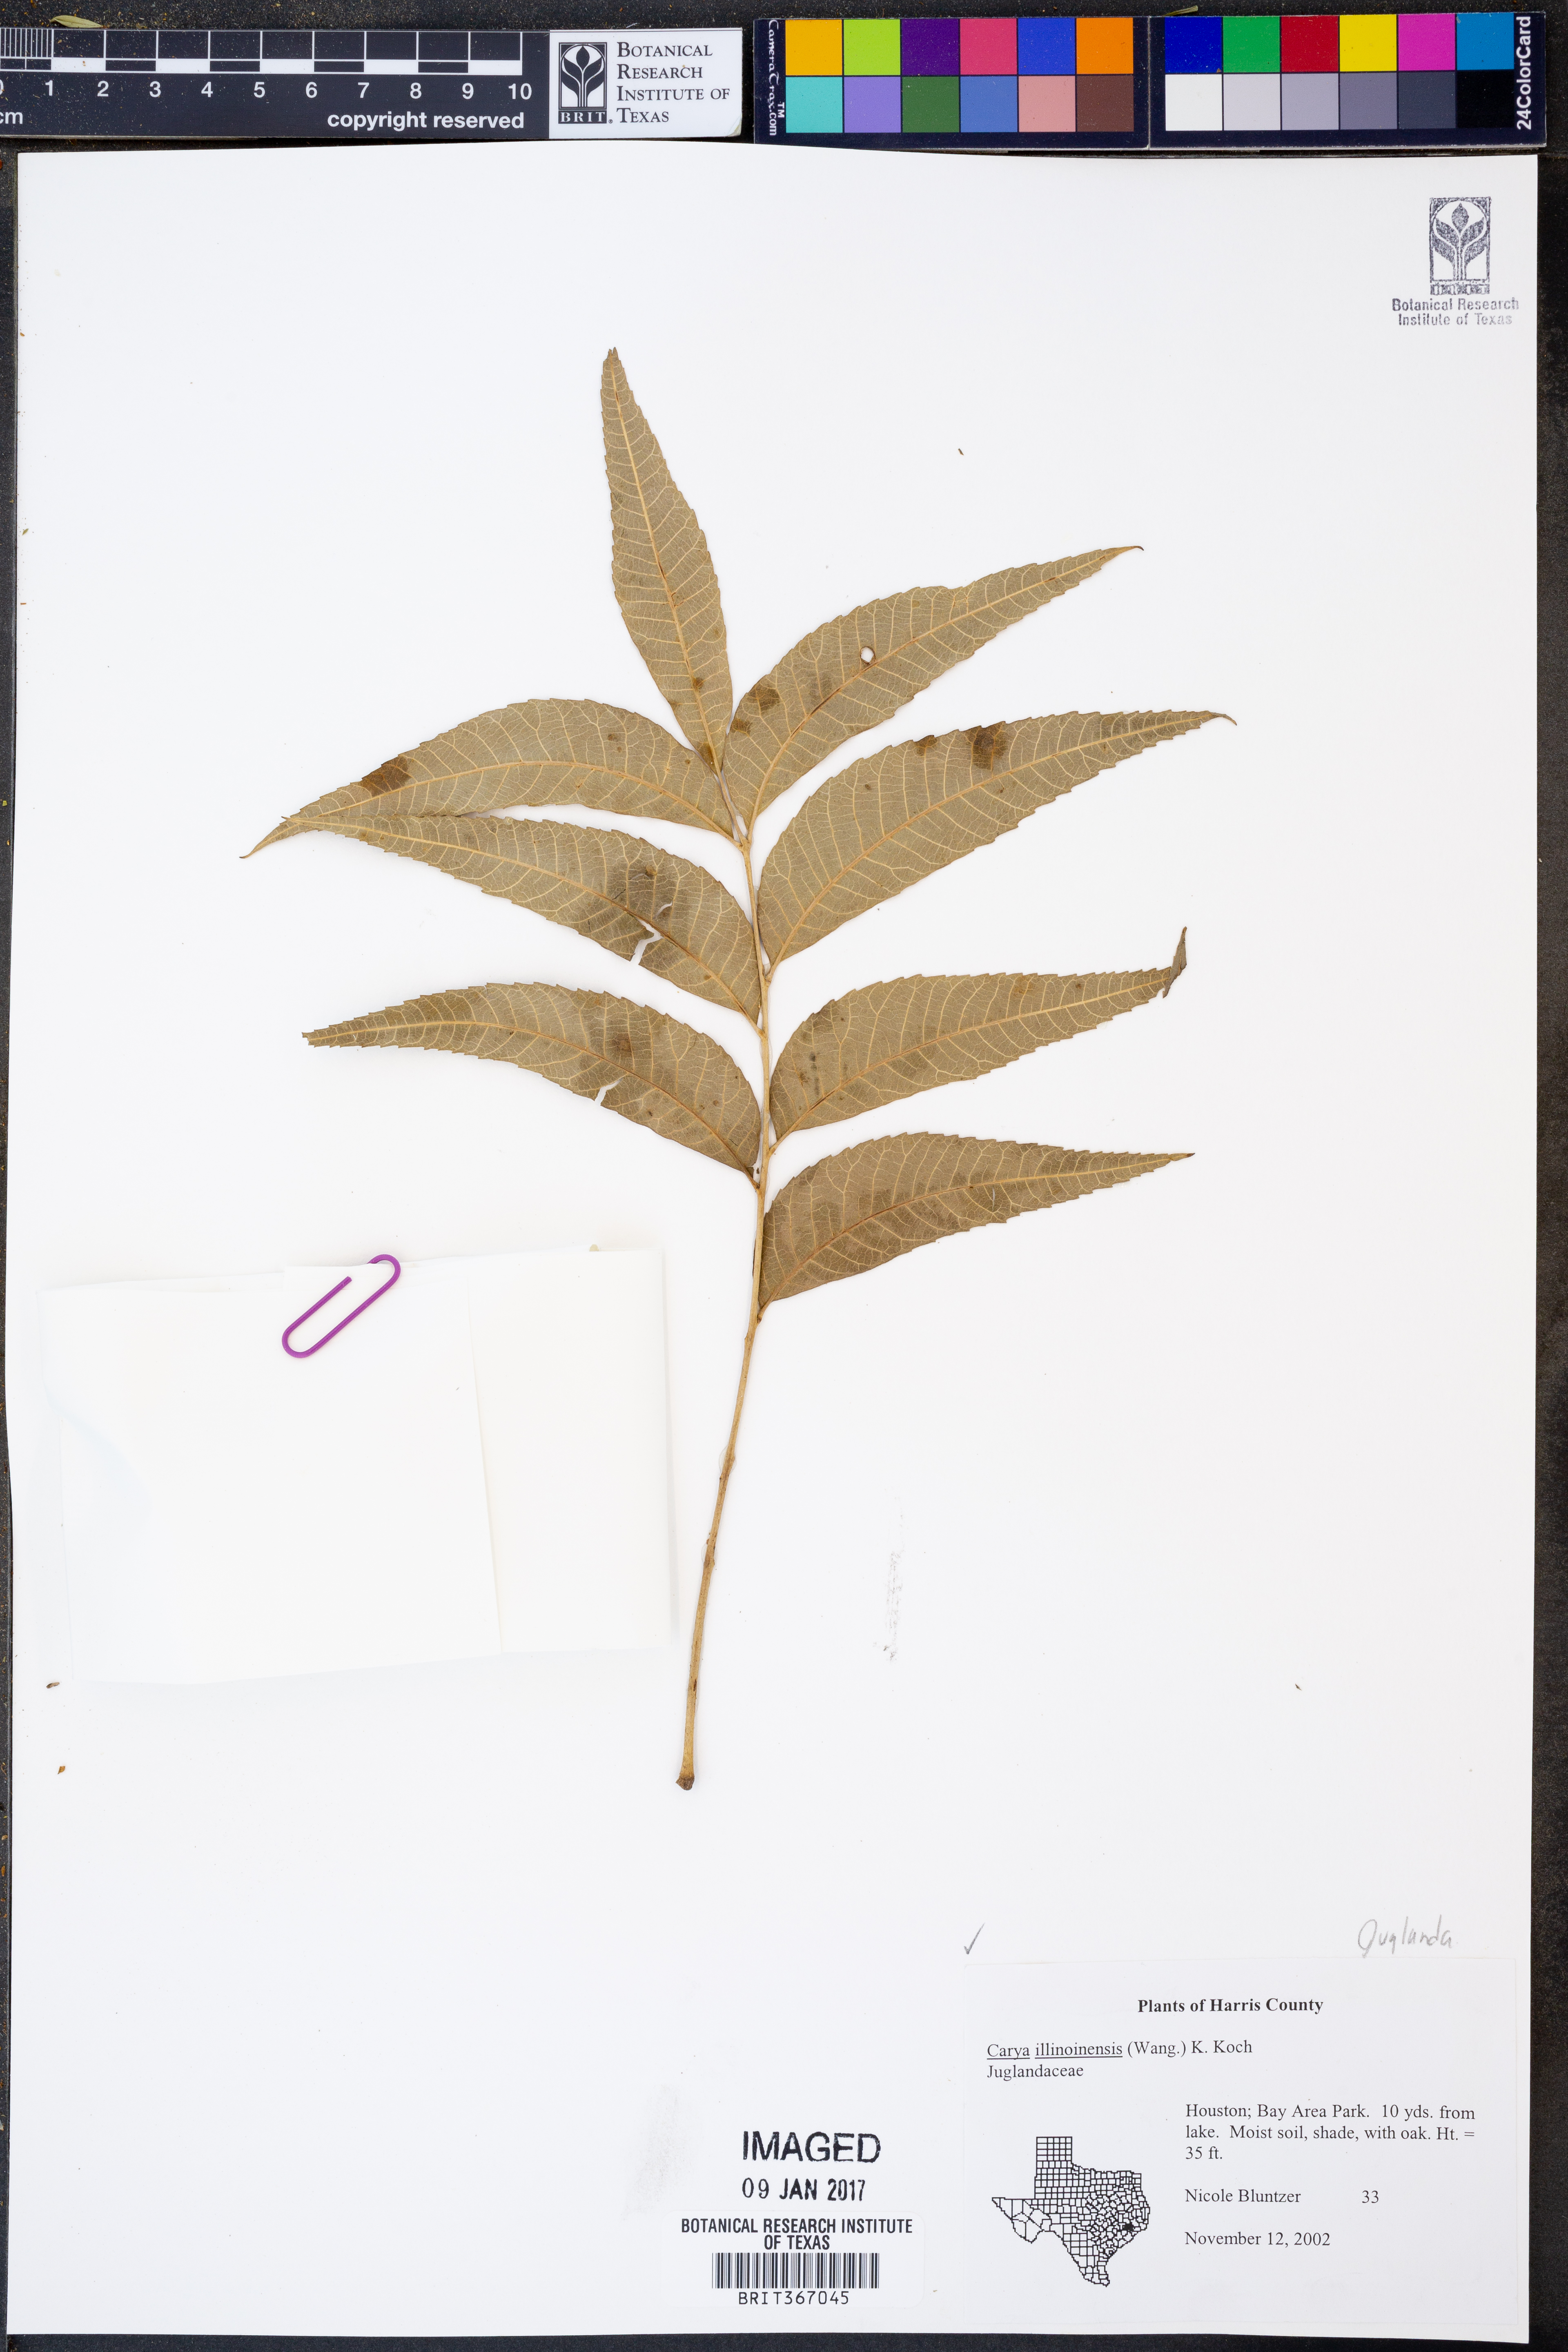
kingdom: Plantae
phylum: Tracheophyta
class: Magnoliopsida
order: Fagales
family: Juglandaceae
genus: Carya
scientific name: Carya illinoinensis
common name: Pecan
